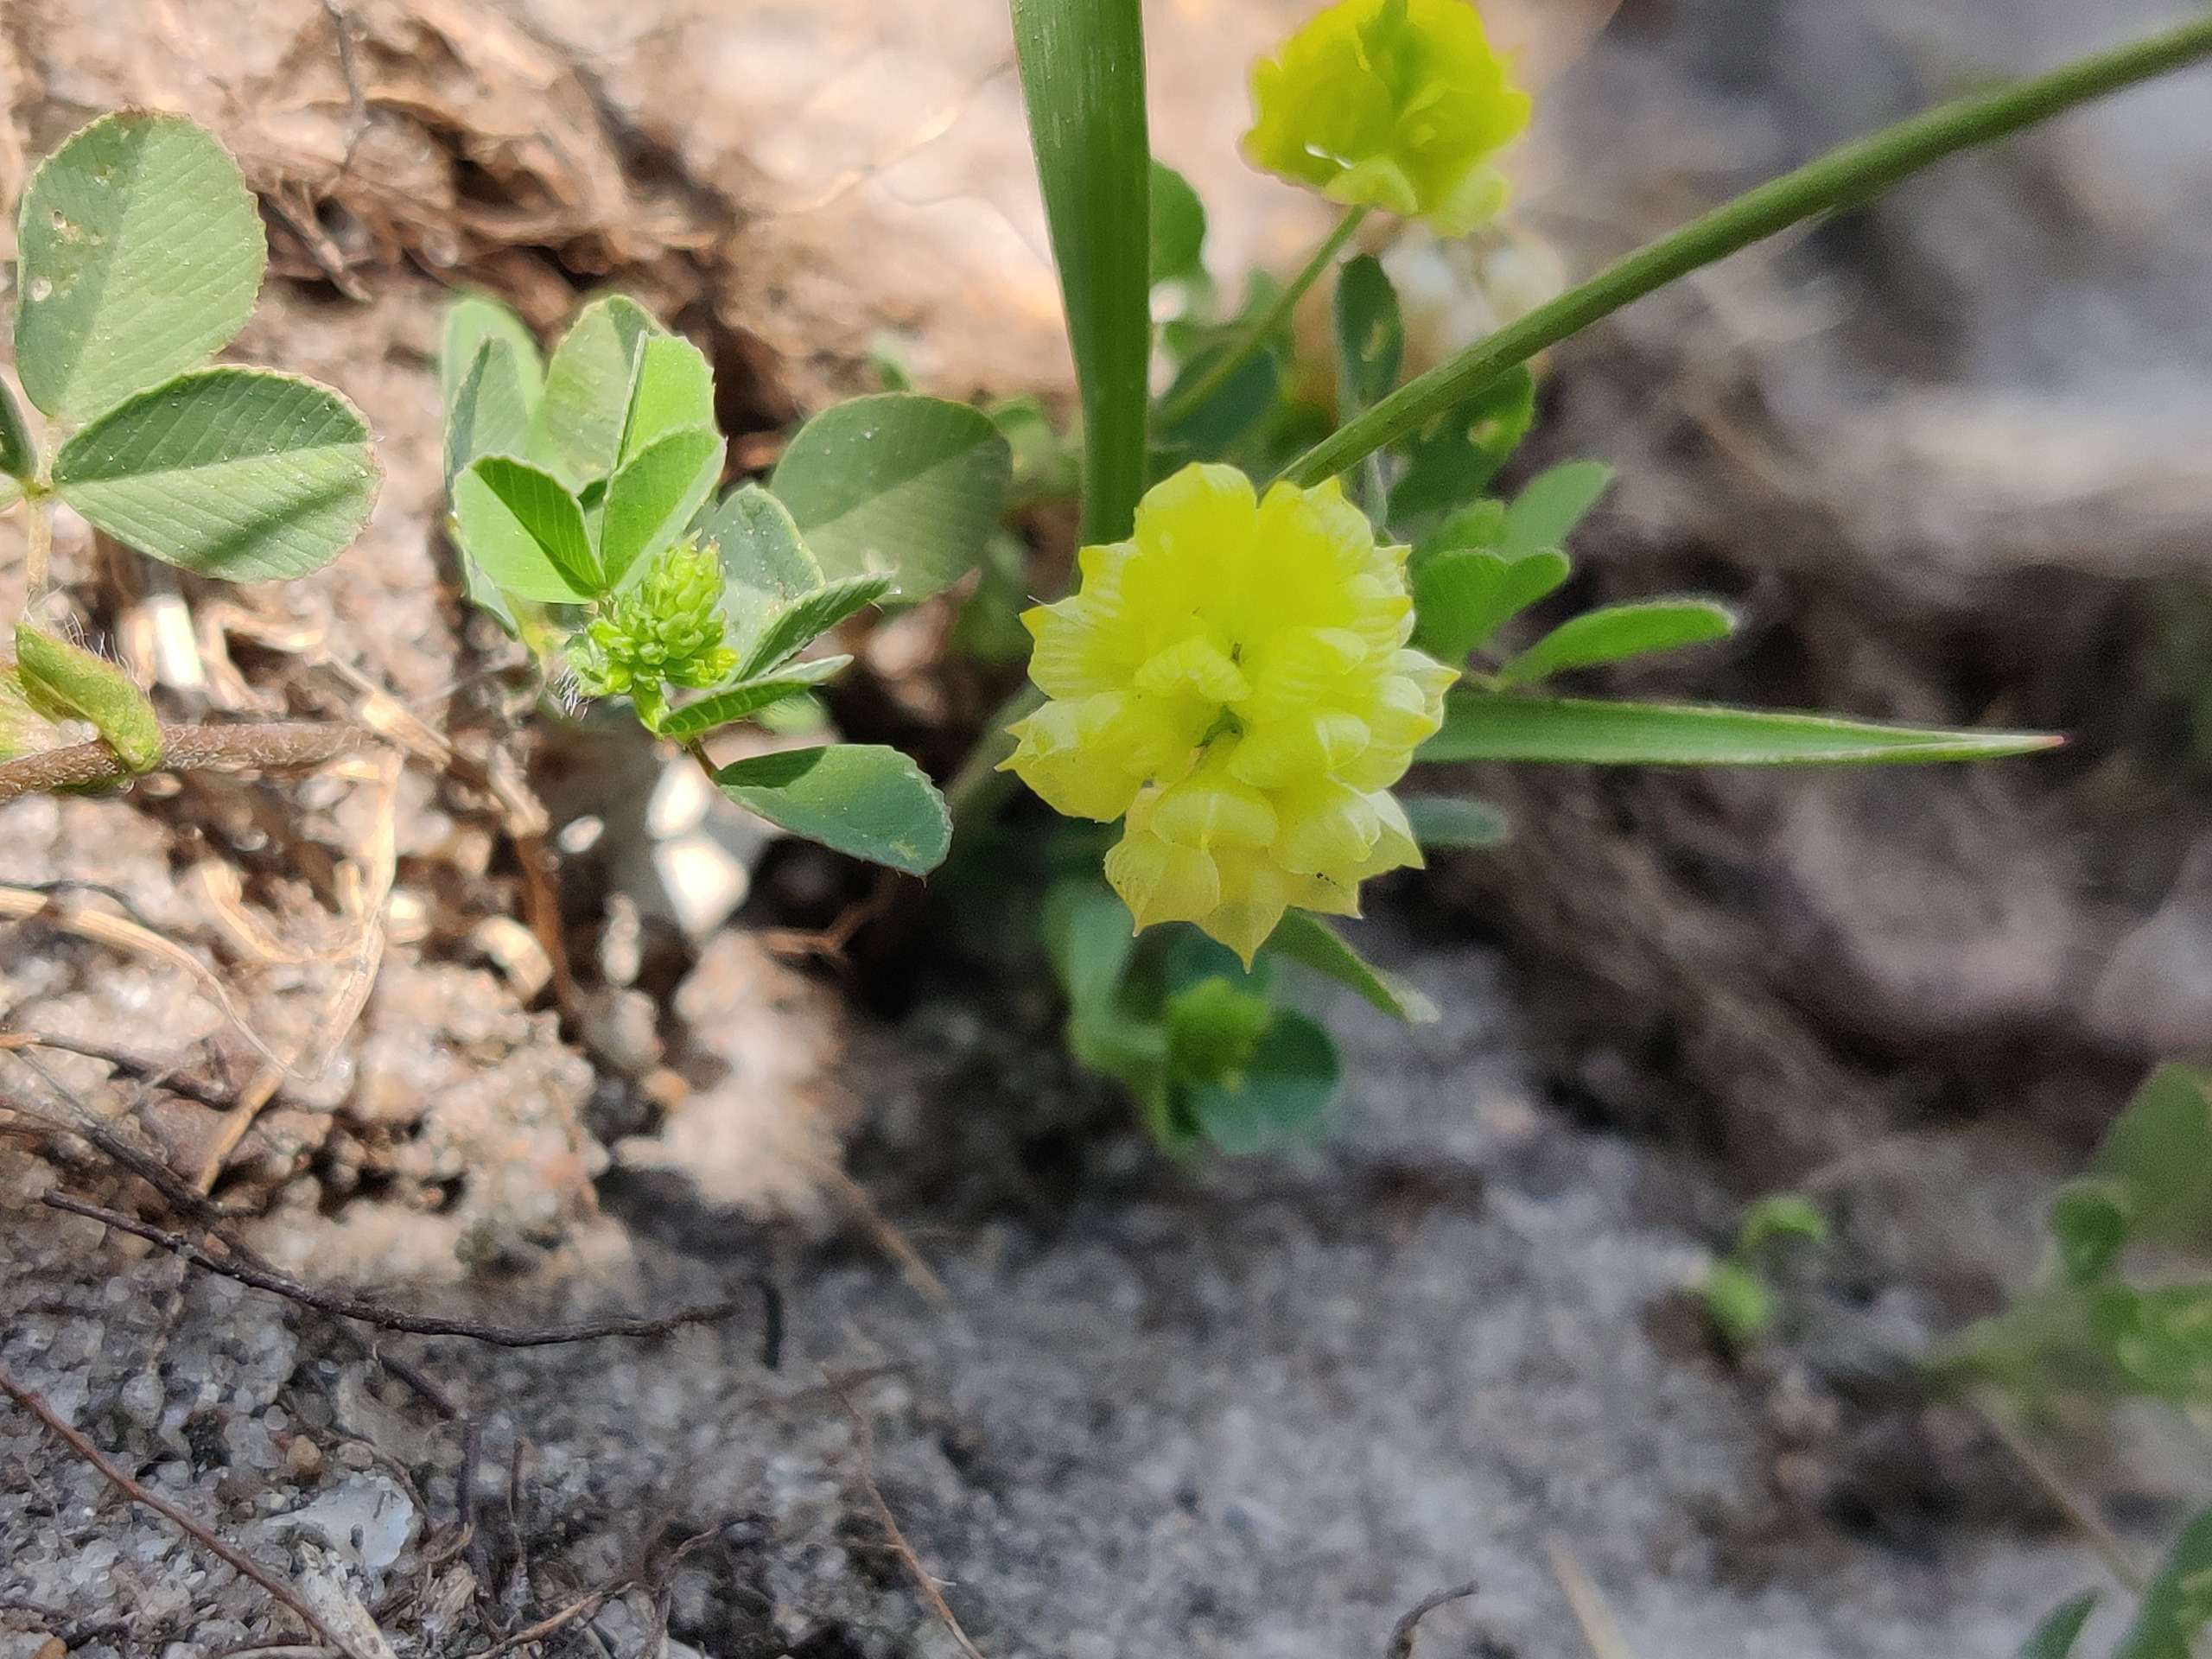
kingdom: Plantae
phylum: Tracheophyta
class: Magnoliopsida
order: Fabales
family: Fabaceae
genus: Trifolium
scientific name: Trifolium campestre
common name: Gul kløver
